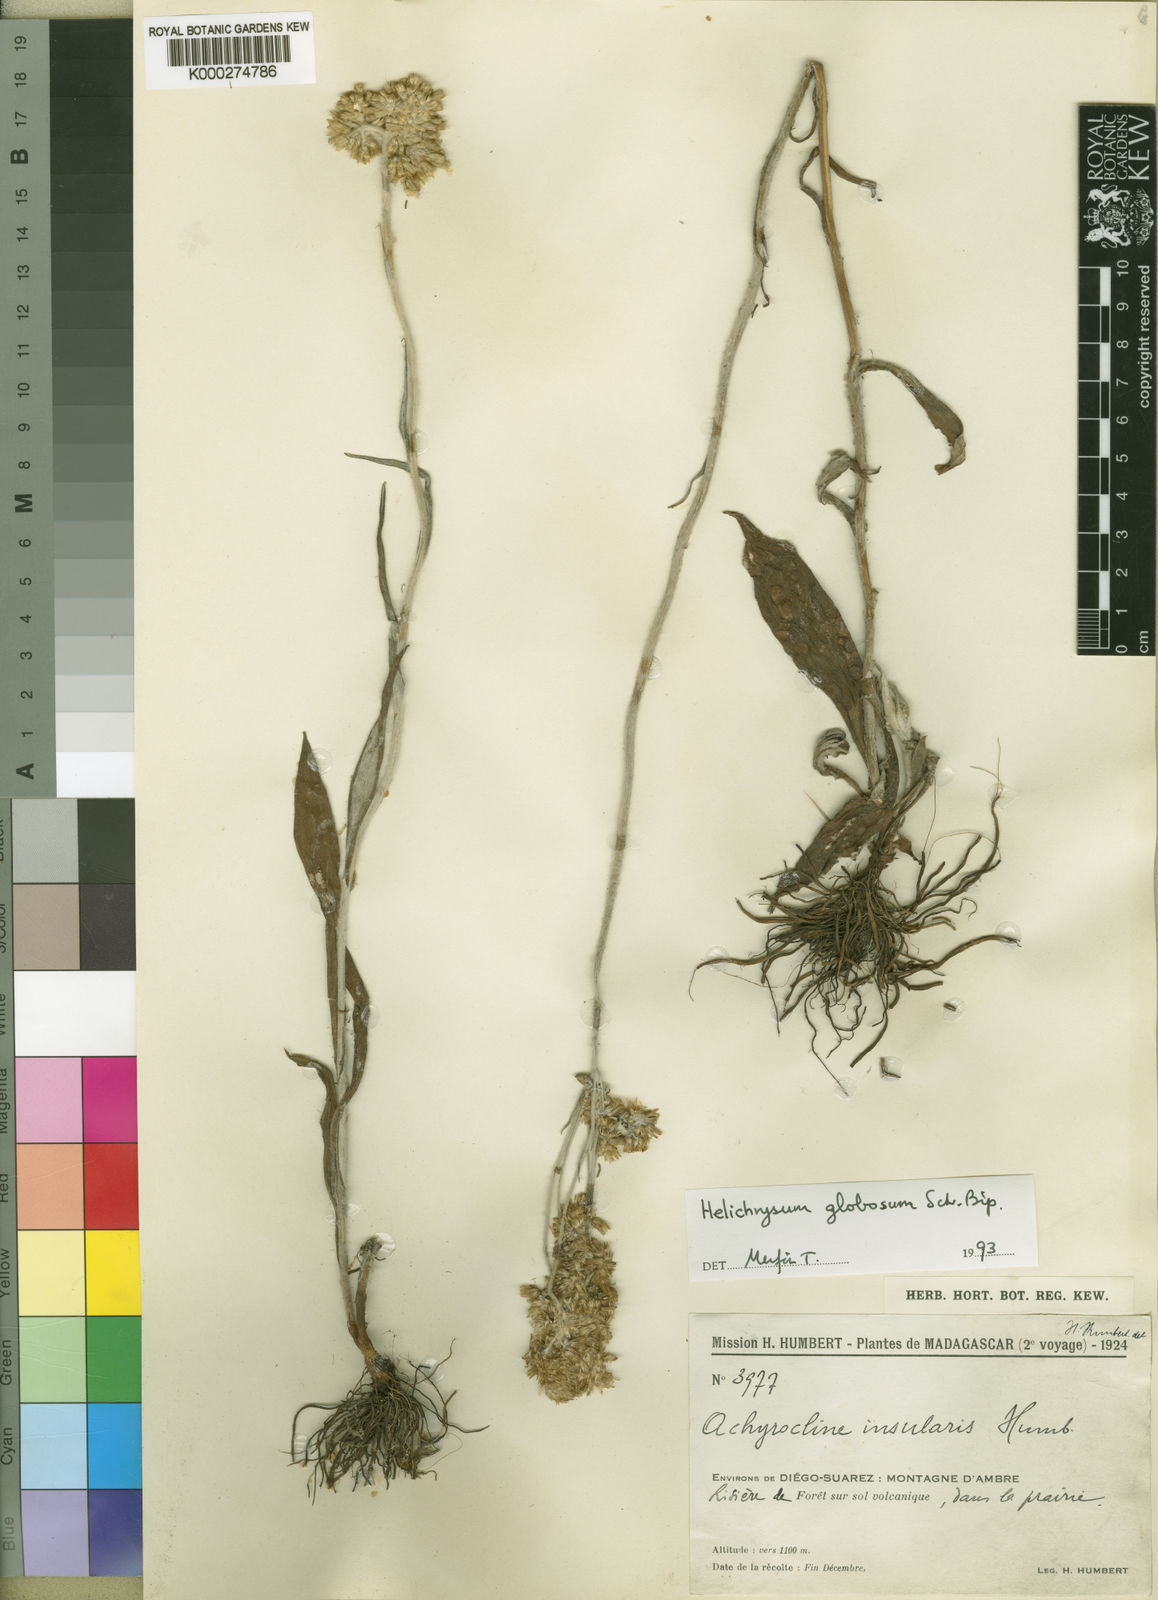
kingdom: Plantae
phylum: Tracheophyta
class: Magnoliopsida
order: Asterales
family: Asteraceae
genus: Helichrysum
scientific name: Helichrysum
